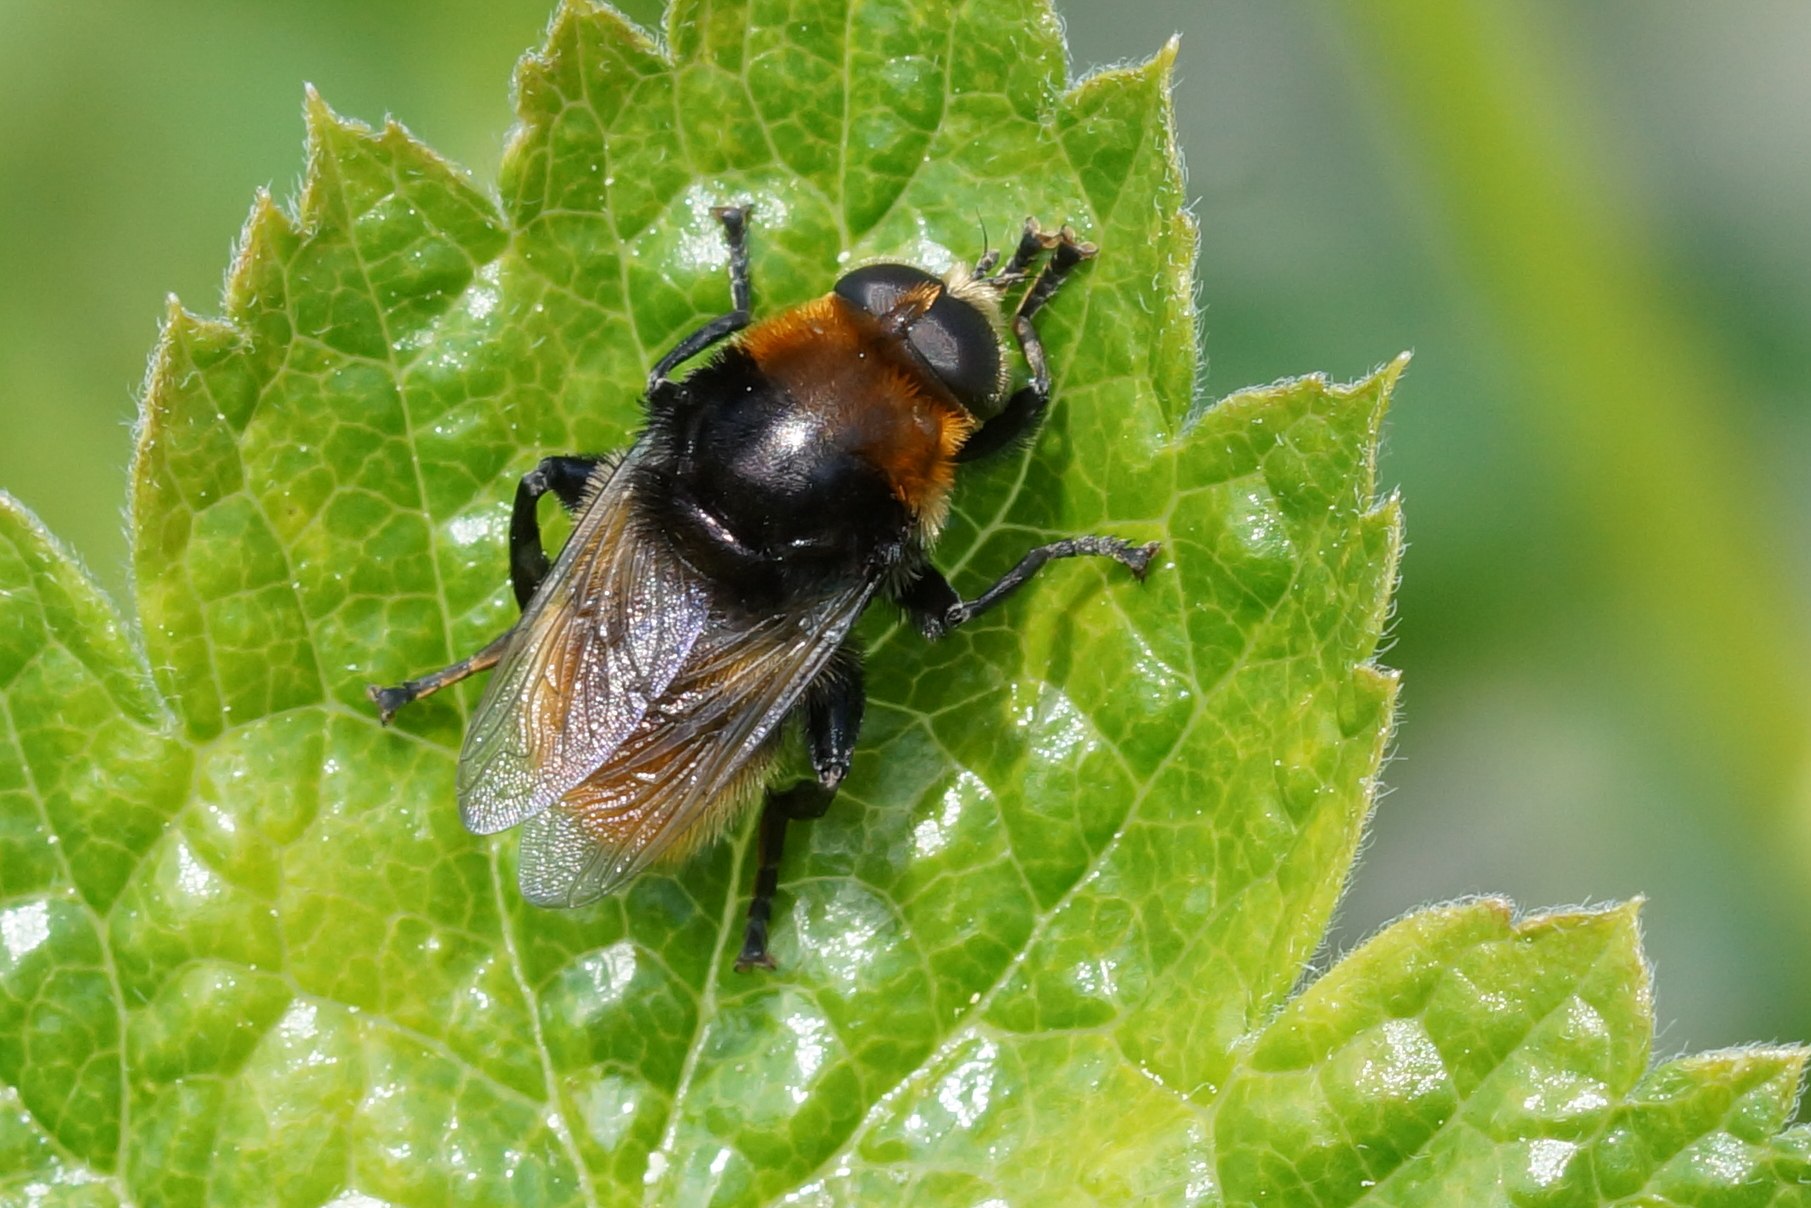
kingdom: Animalia
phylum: Arthropoda
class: Insecta
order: Diptera
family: Syrphidae
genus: Merodon
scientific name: Merodon equestris
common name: Stor narcisflue
